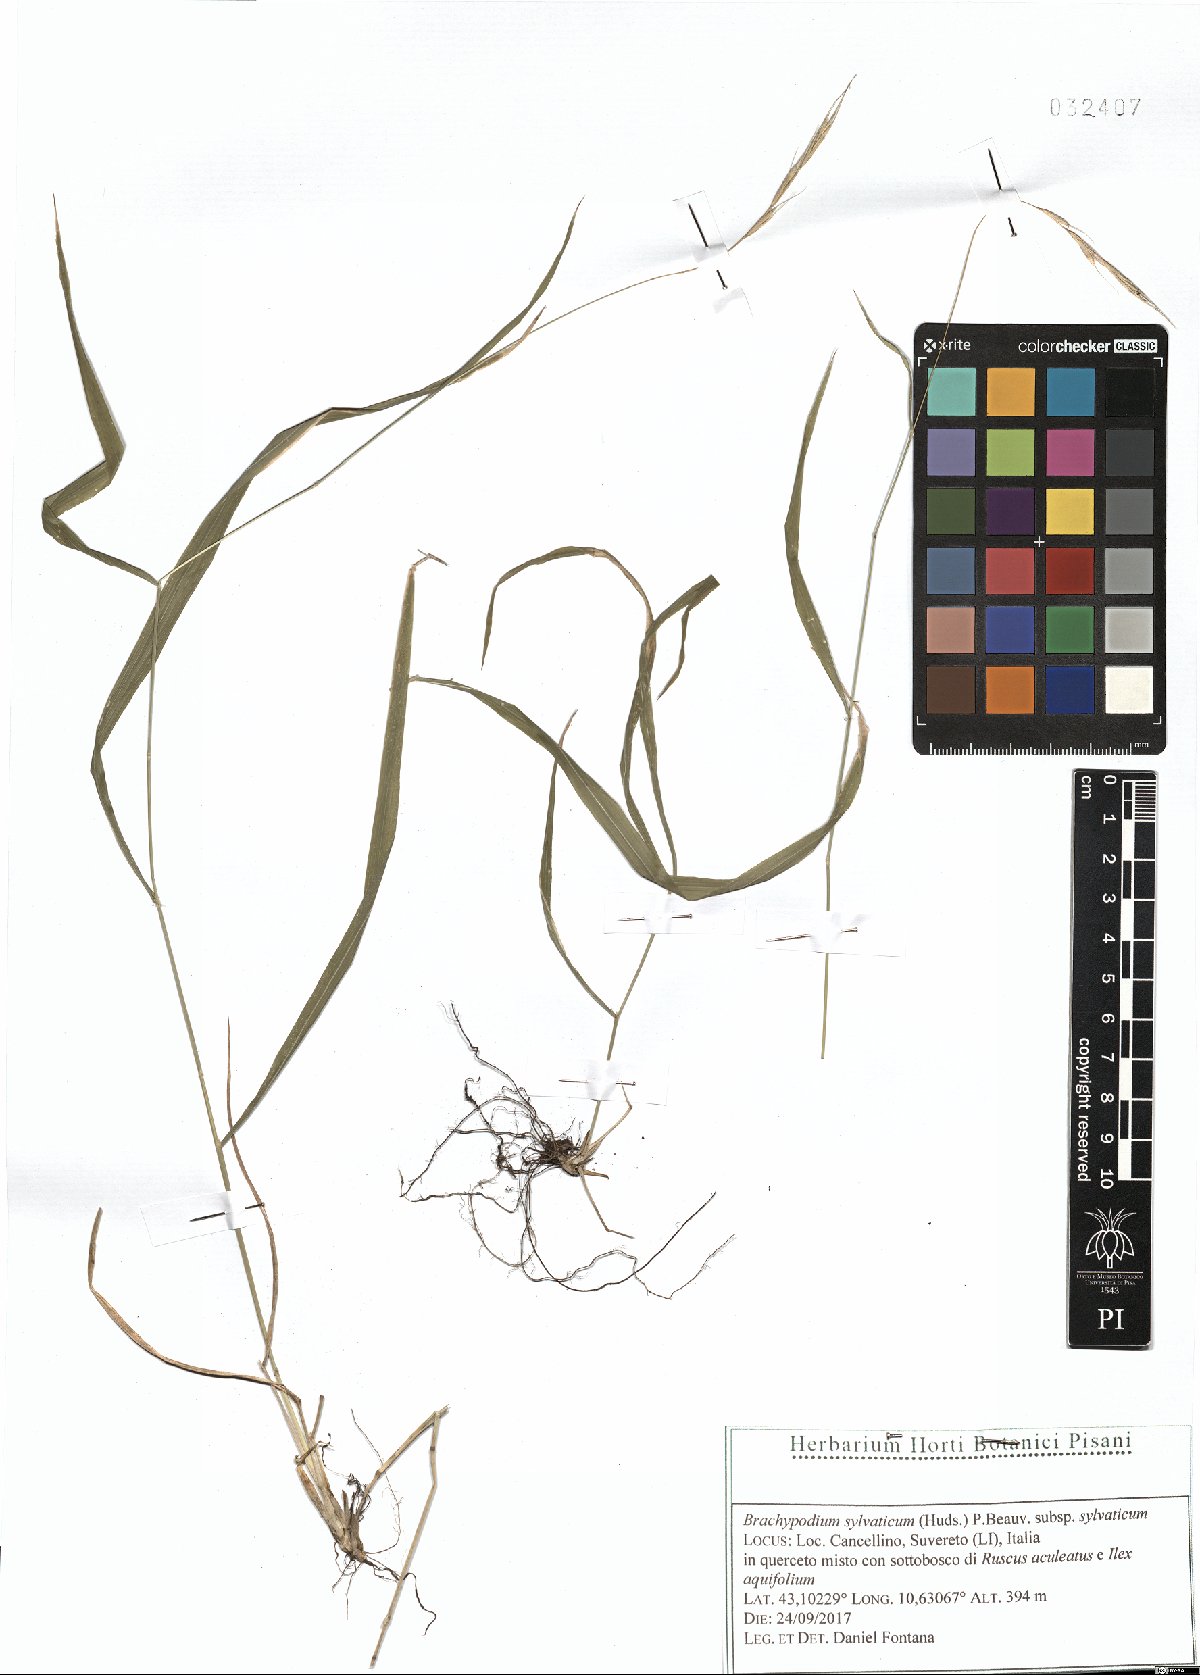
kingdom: Plantae
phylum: Tracheophyta
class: Liliopsida
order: Poales
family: Poaceae
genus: Brachypodium
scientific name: Brachypodium sylvaticum
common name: False-brome
